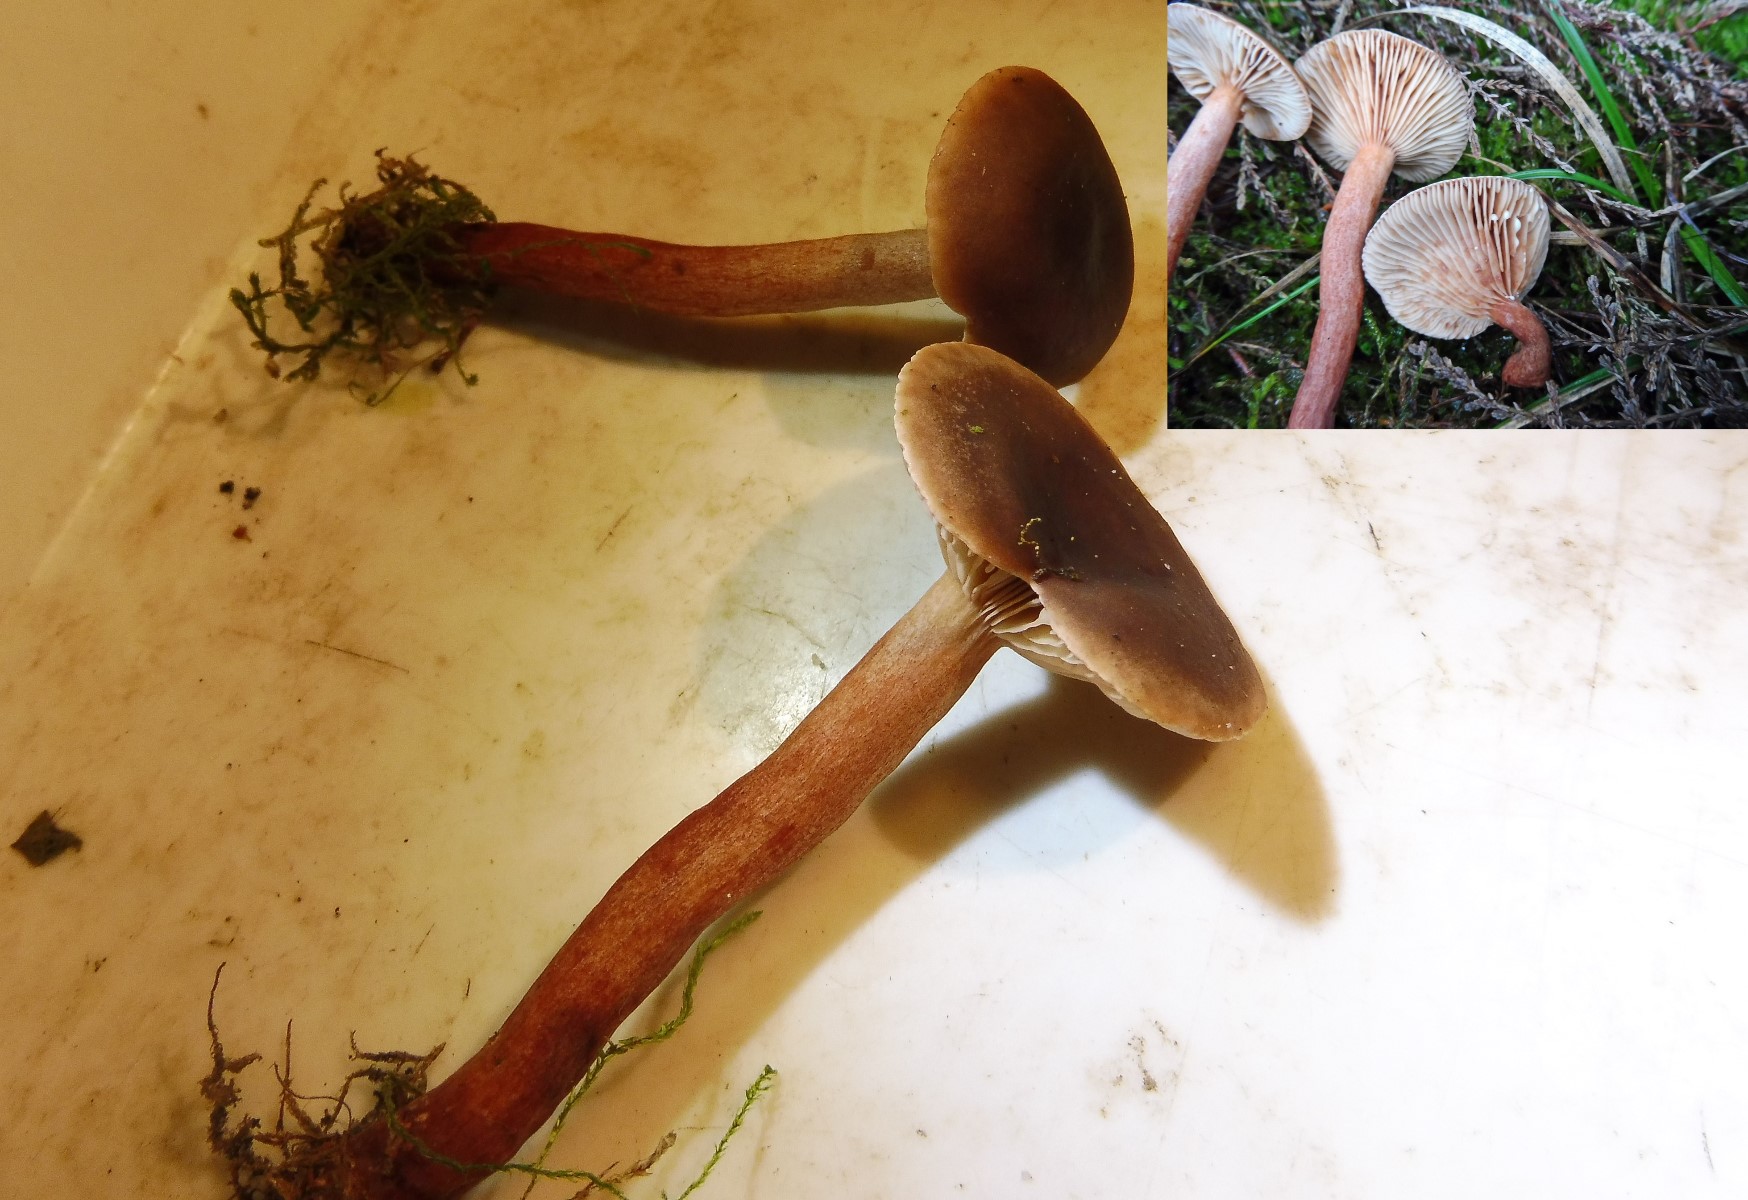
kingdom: Fungi
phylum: Basidiomycota
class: Agaricomycetes
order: Russulales
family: Russulaceae
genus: Lactarius
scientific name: Lactarius hepaticus
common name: leverbrun mælkehat
